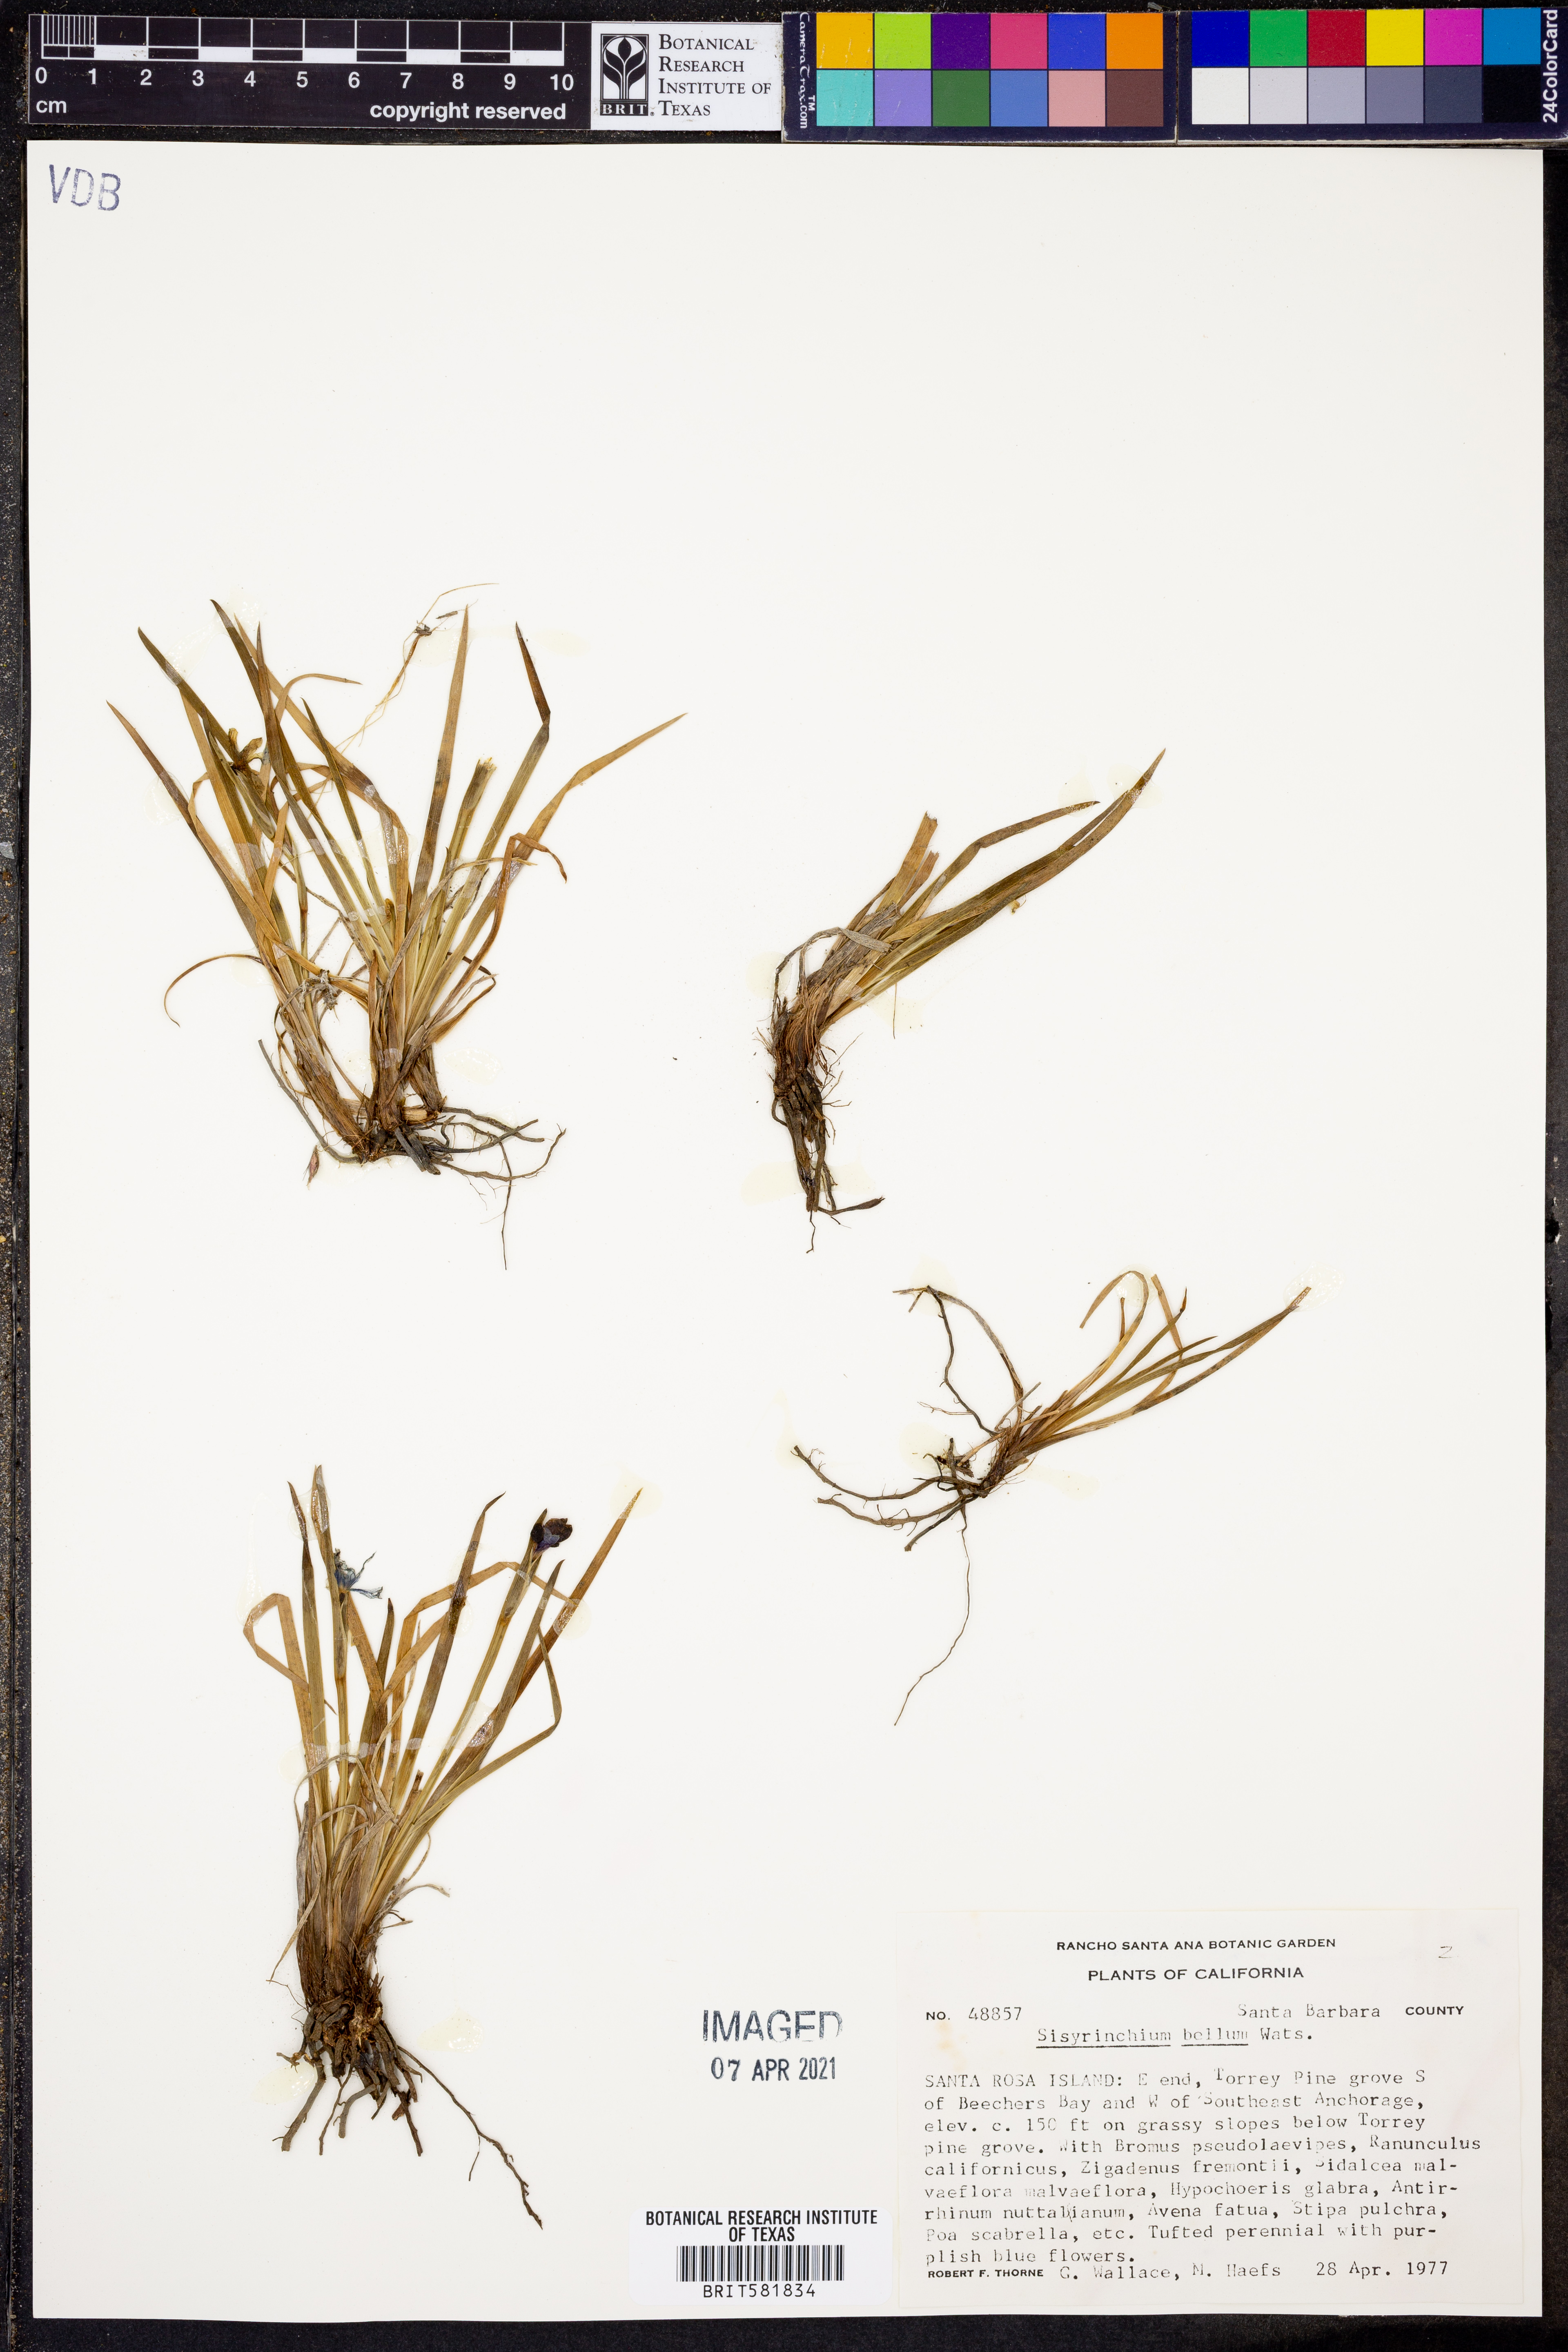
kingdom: Plantae
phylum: Tracheophyta
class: Liliopsida
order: Asparagales
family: Iridaceae
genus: Sisyrinchium
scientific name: Sisyrinchium bellum
